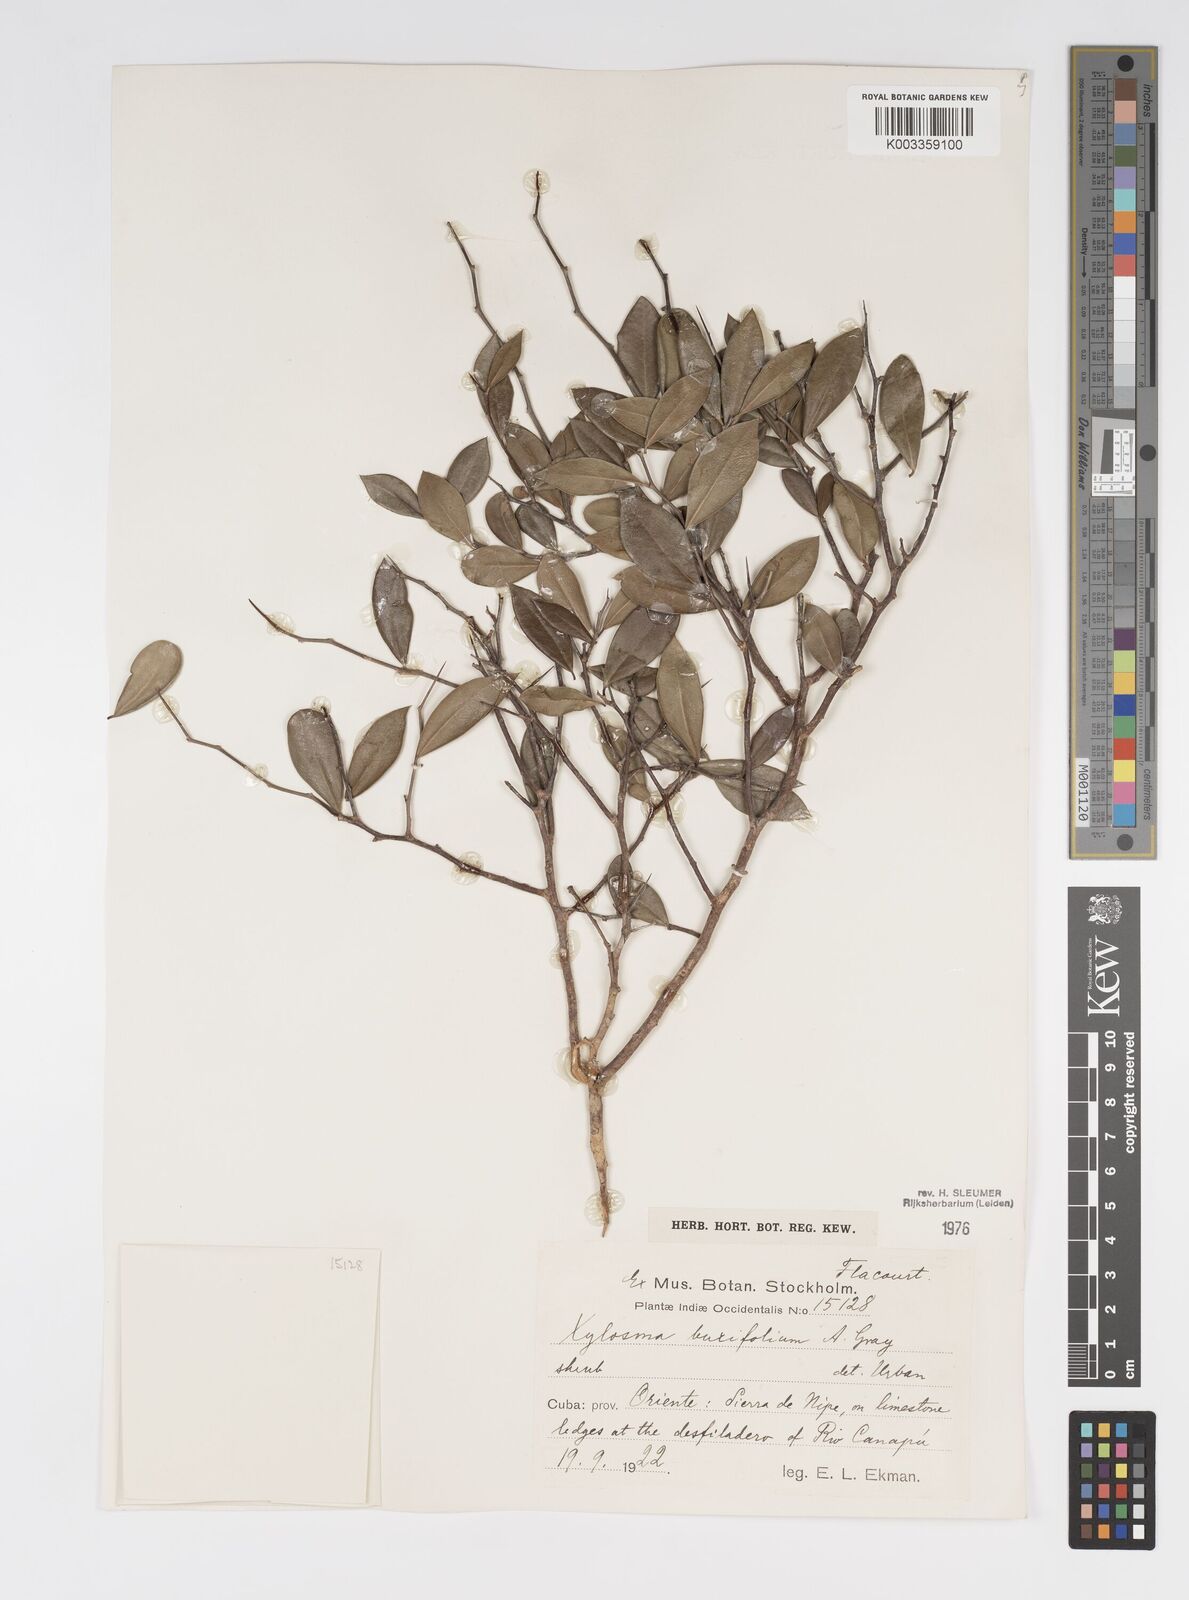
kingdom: Plantae
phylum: Tracheophyta
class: Magnoliopsida
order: Malpighiales
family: Salicaceae
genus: Xylosma
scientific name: Xylosma buxifolia
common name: Cockspur
